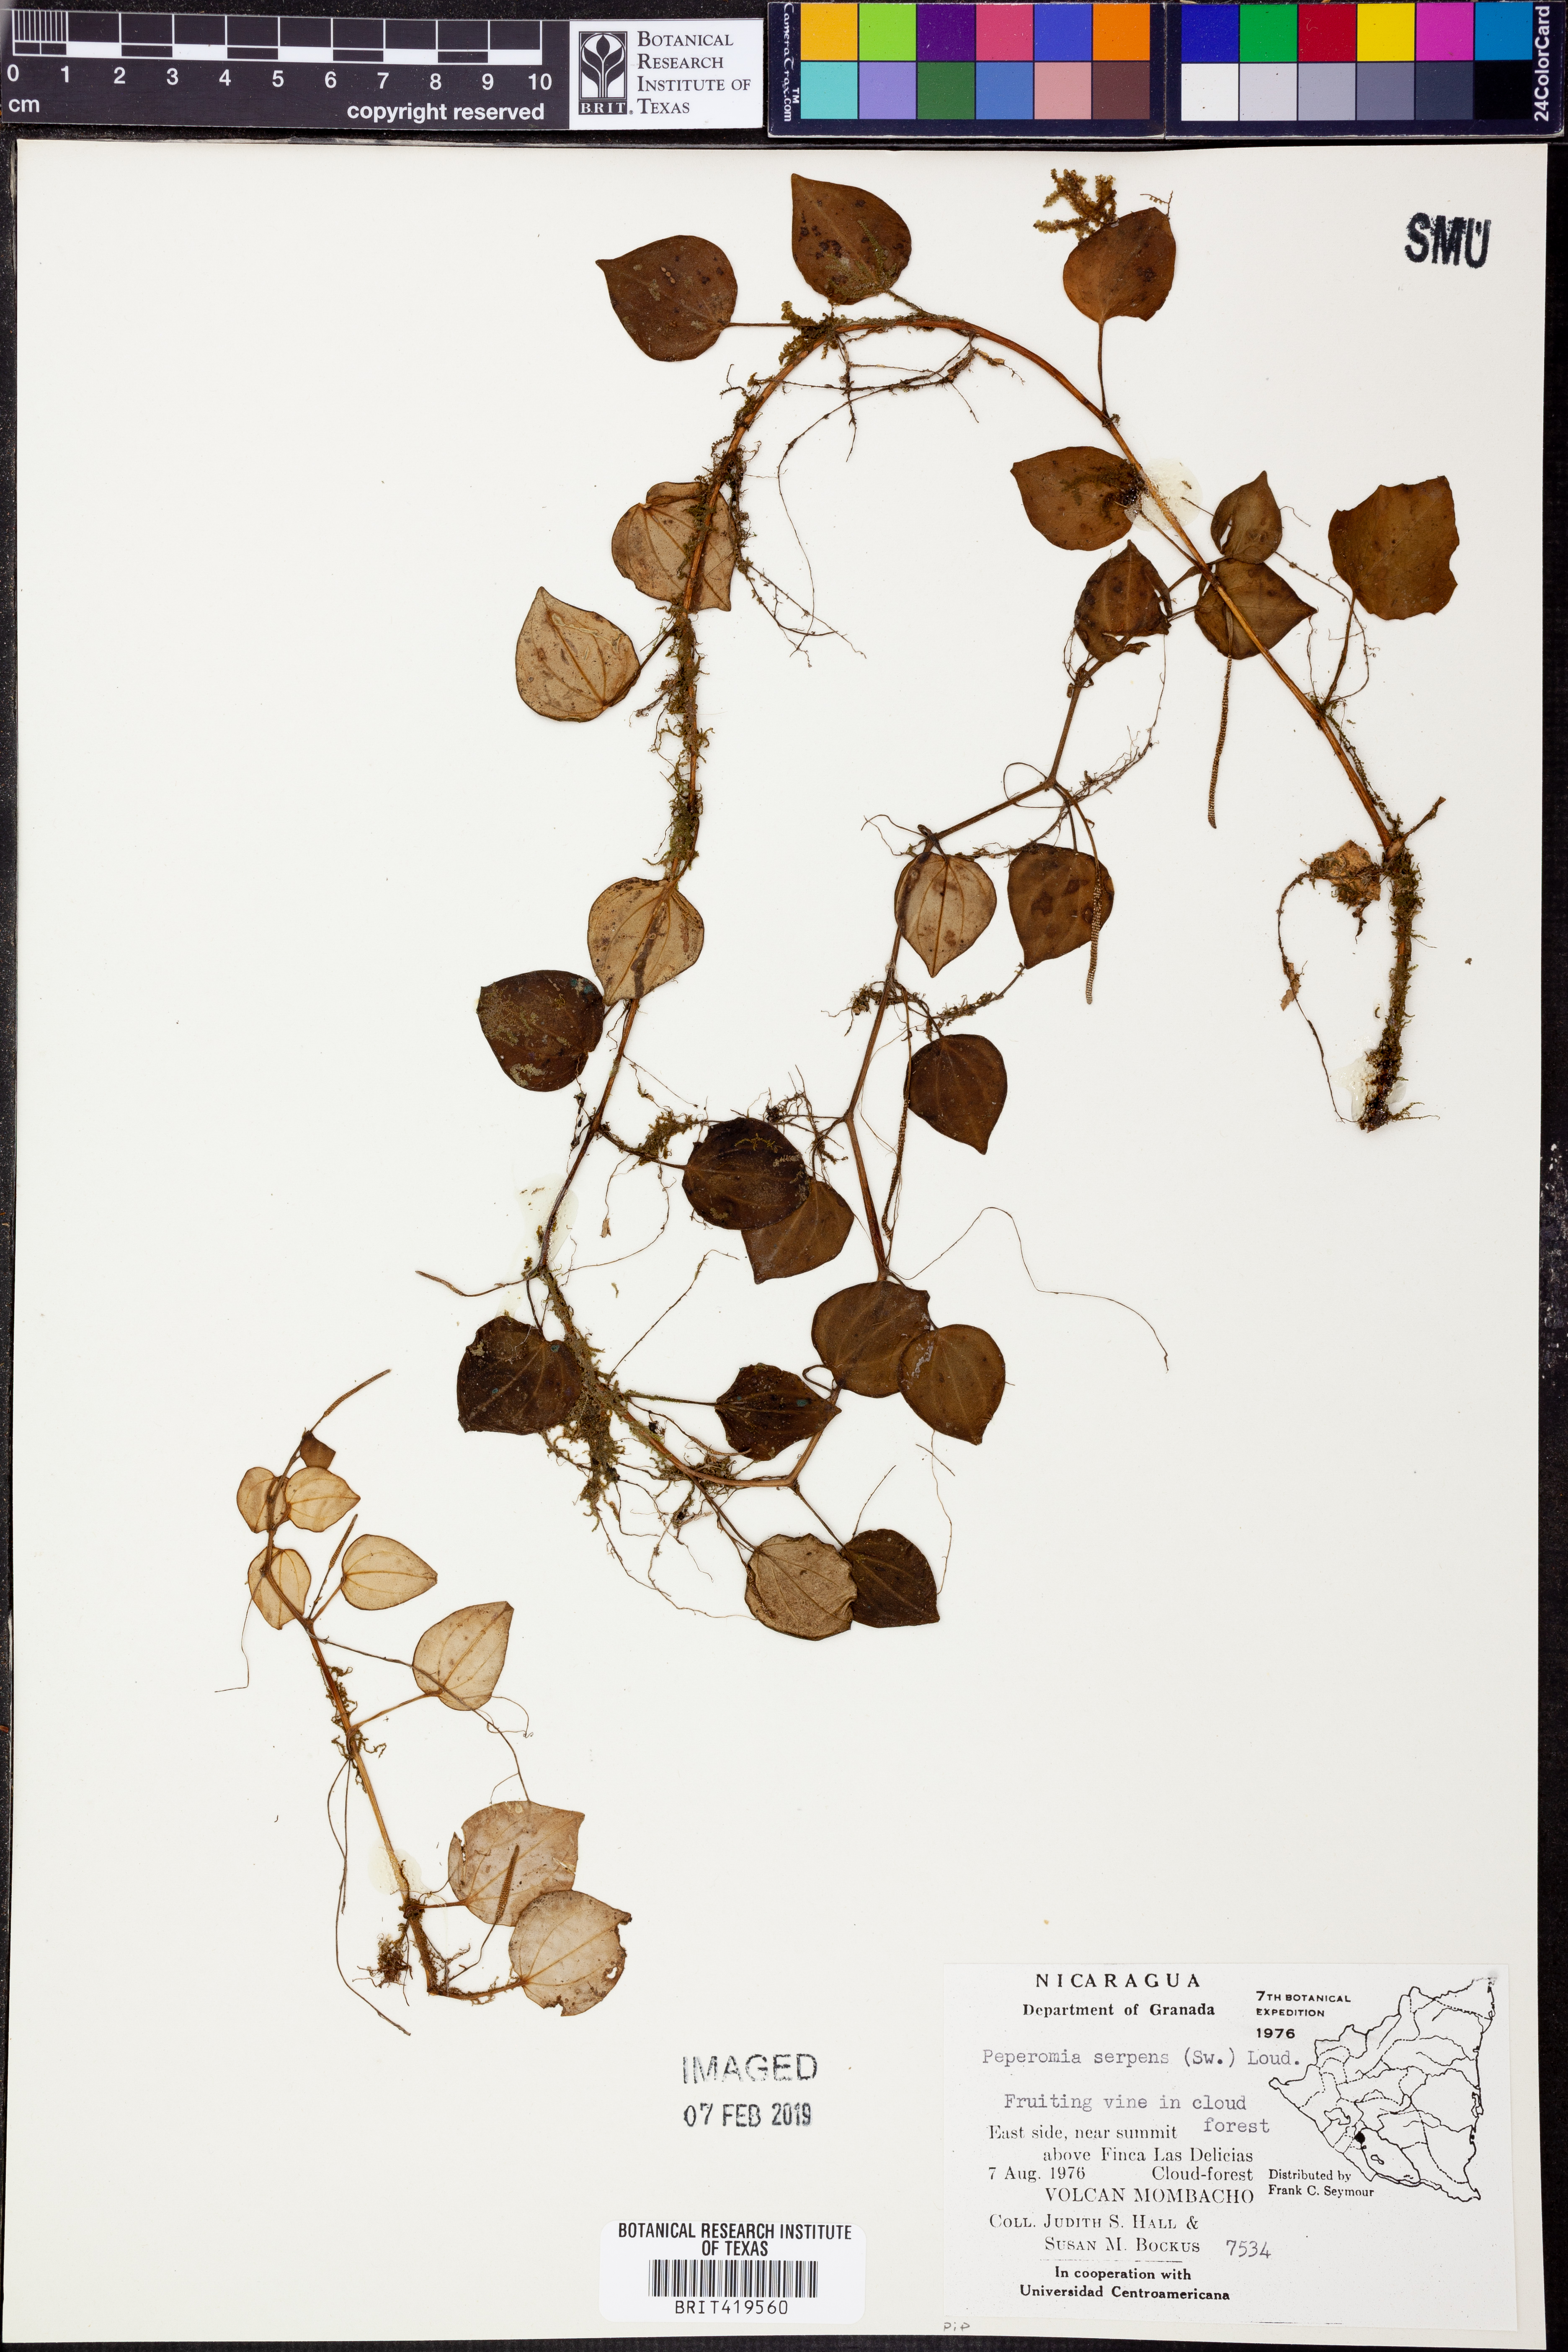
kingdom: Plantae
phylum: Tracheophyta
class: Magnoliopsida
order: Piperales
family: Piperaceae
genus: Peperomia
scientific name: Peperomia serpens
